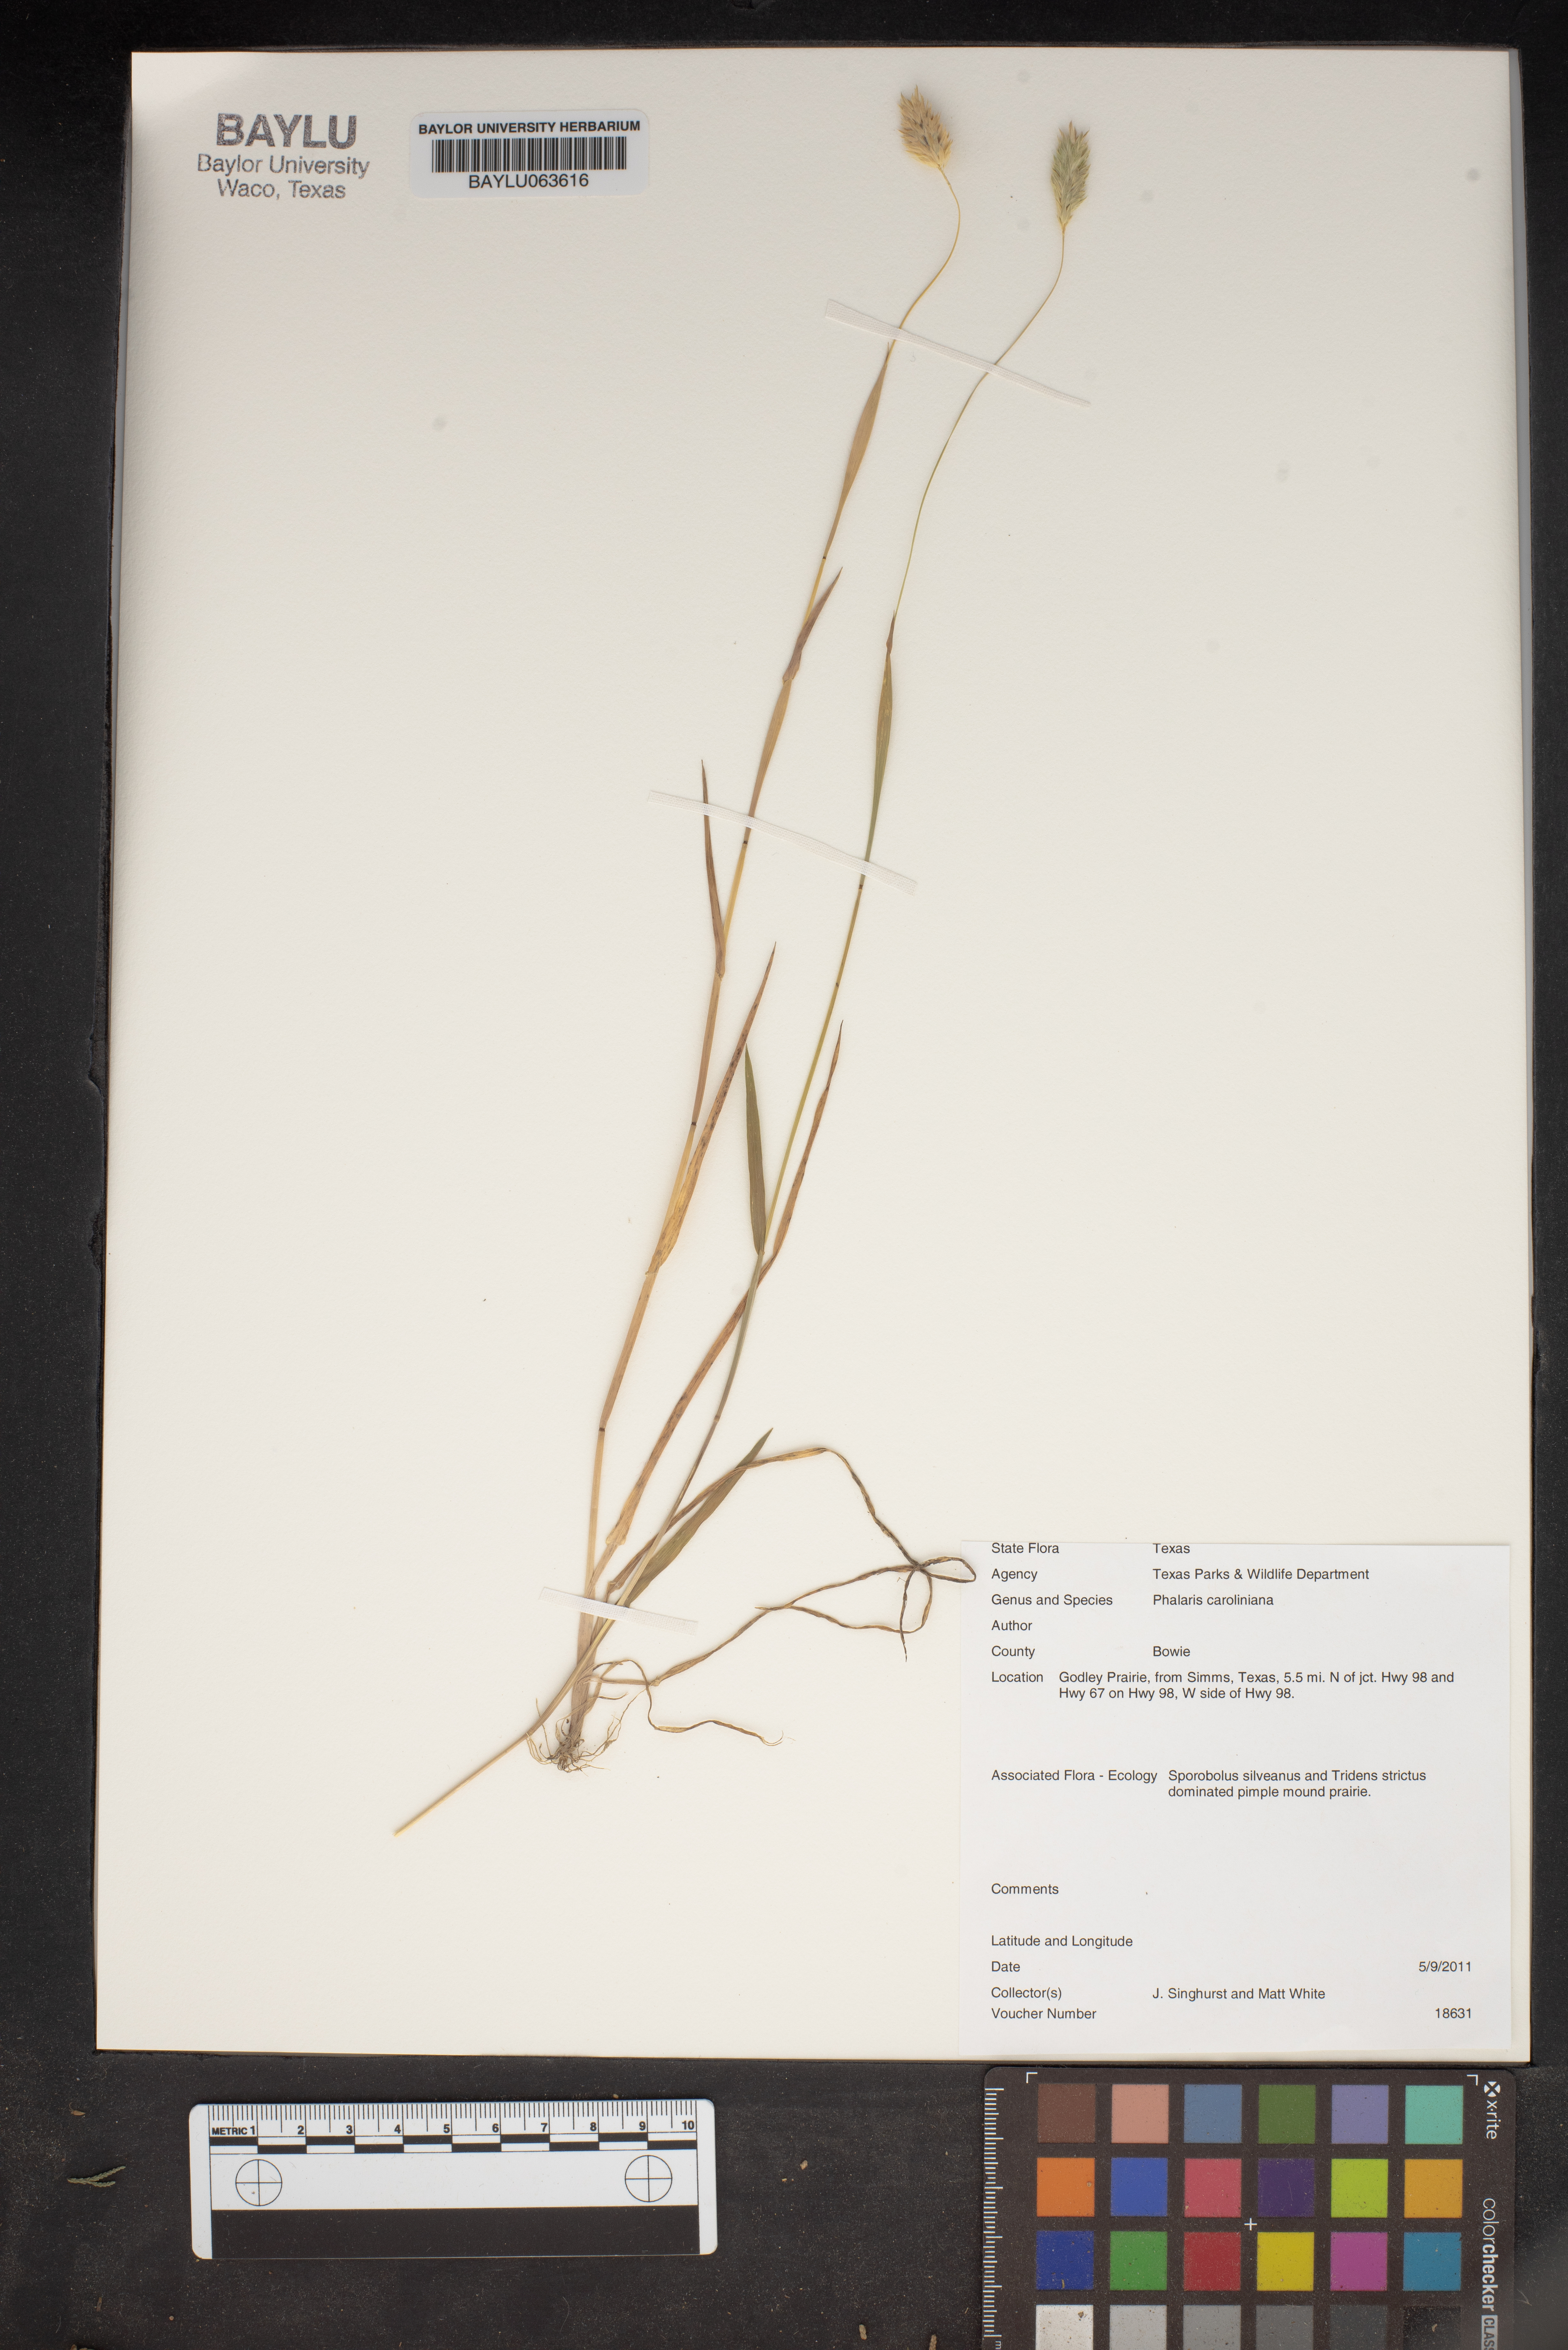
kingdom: Plantae
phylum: Tracheophyta
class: Liliopsida
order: Poales
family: Poaceae
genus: Phalaris
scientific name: Phalaris caroliniana
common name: May grass
